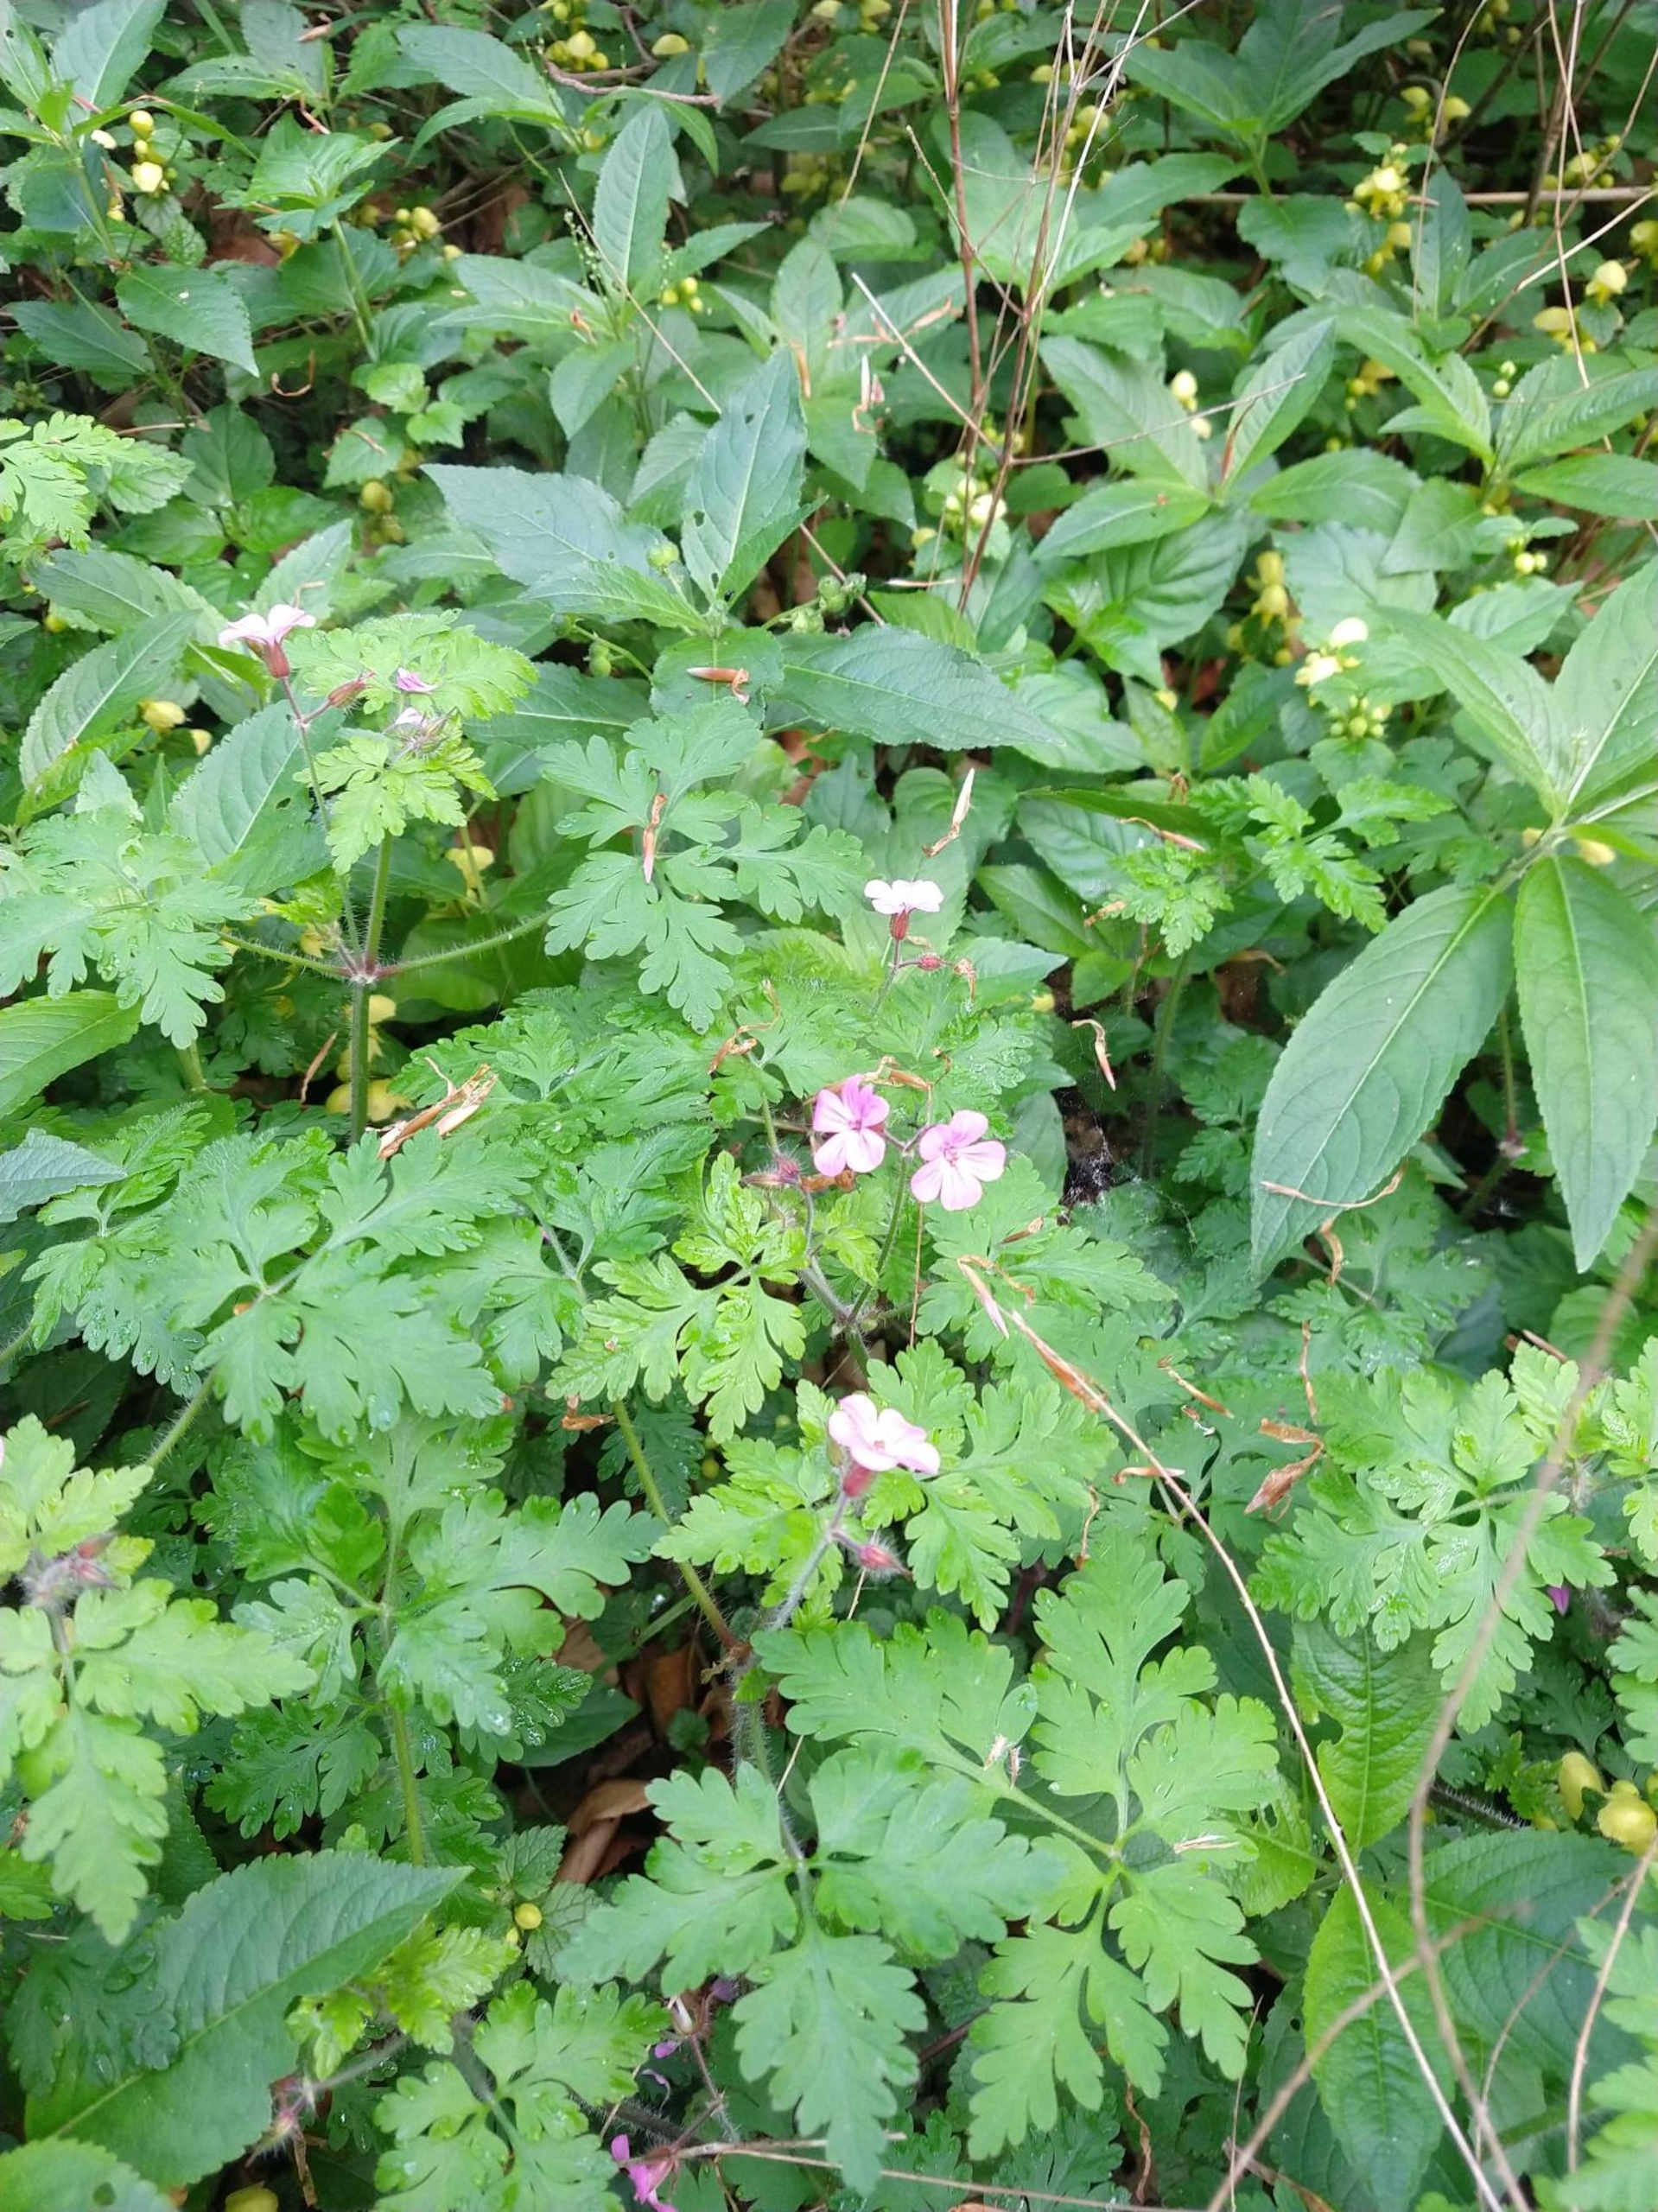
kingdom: Plantae
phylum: Tracheophyta
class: Magnoliopsida
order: Geraniales
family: Geraniaceae
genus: Geranium
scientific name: Geranium robertianum
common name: Stinkende storkenæb
